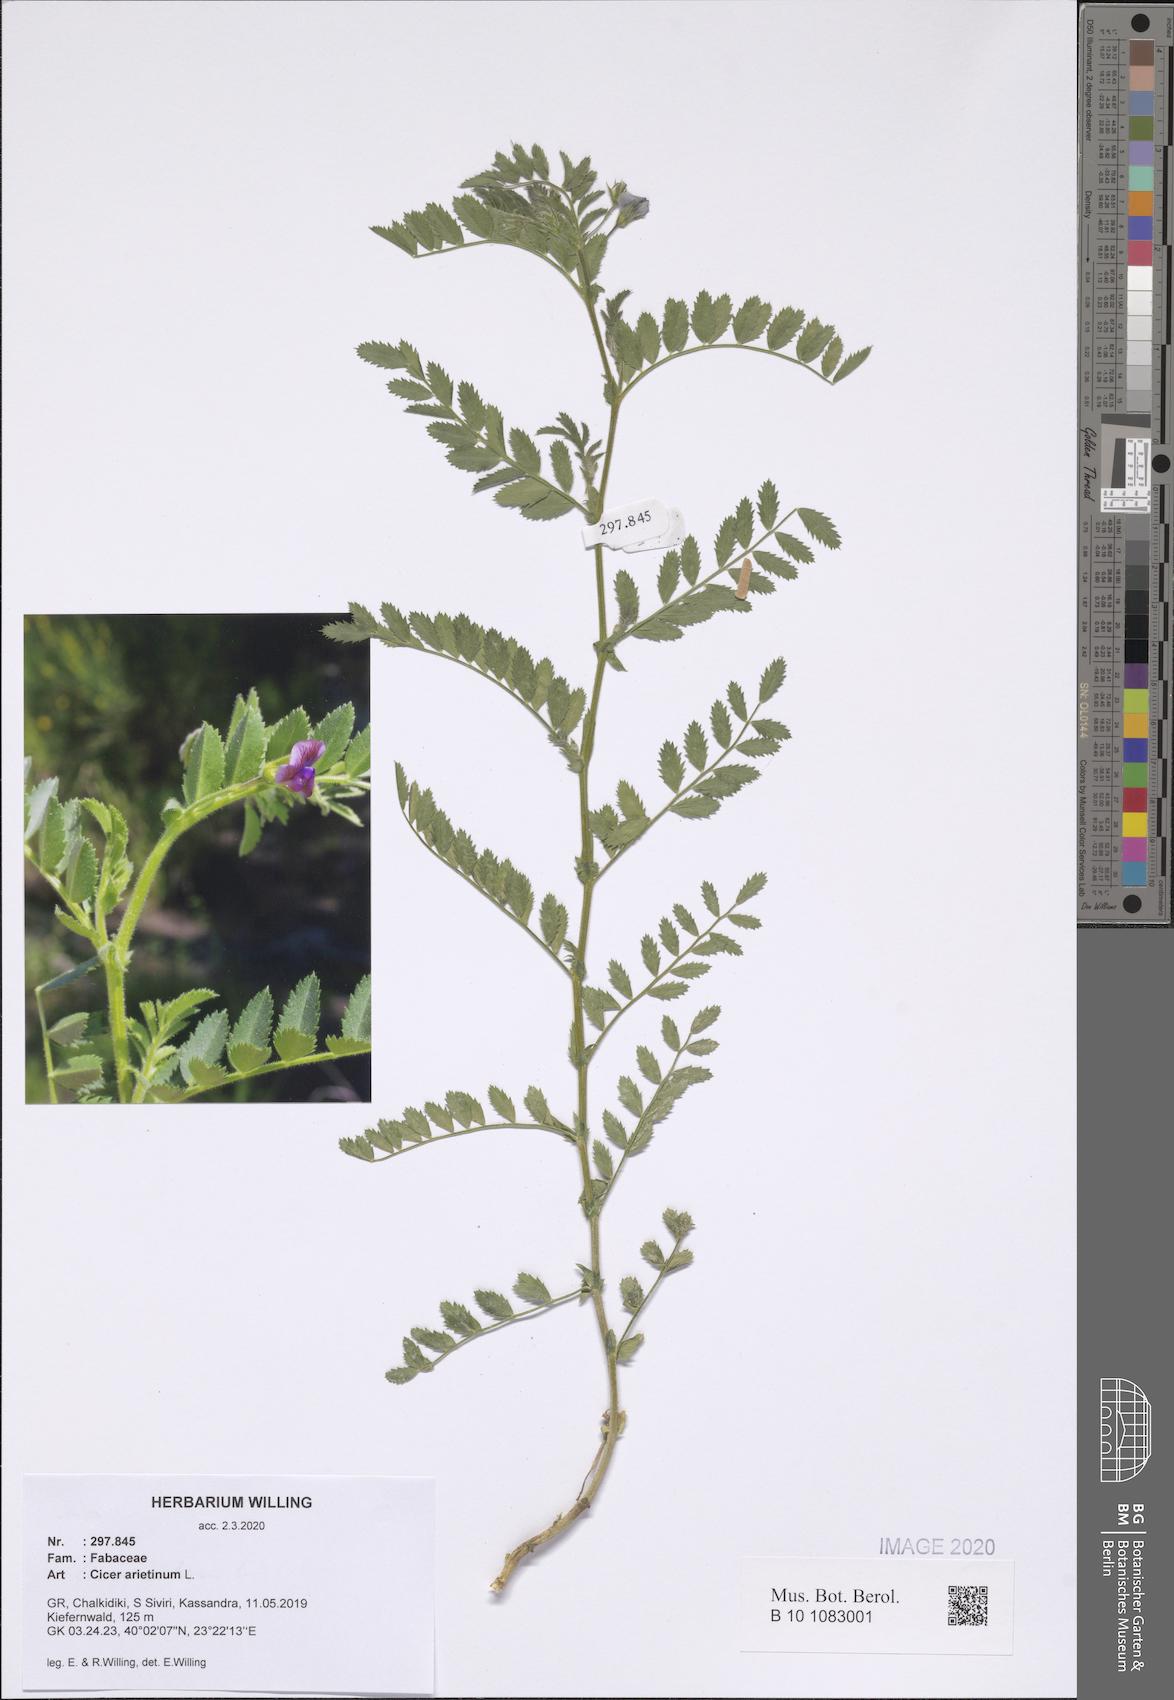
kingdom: Plantae
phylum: Tracheophyta
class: Magnoliopsida
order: Fabales
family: Fabaceae
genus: Cicer
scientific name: Cicer arietinum
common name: Chick pea
